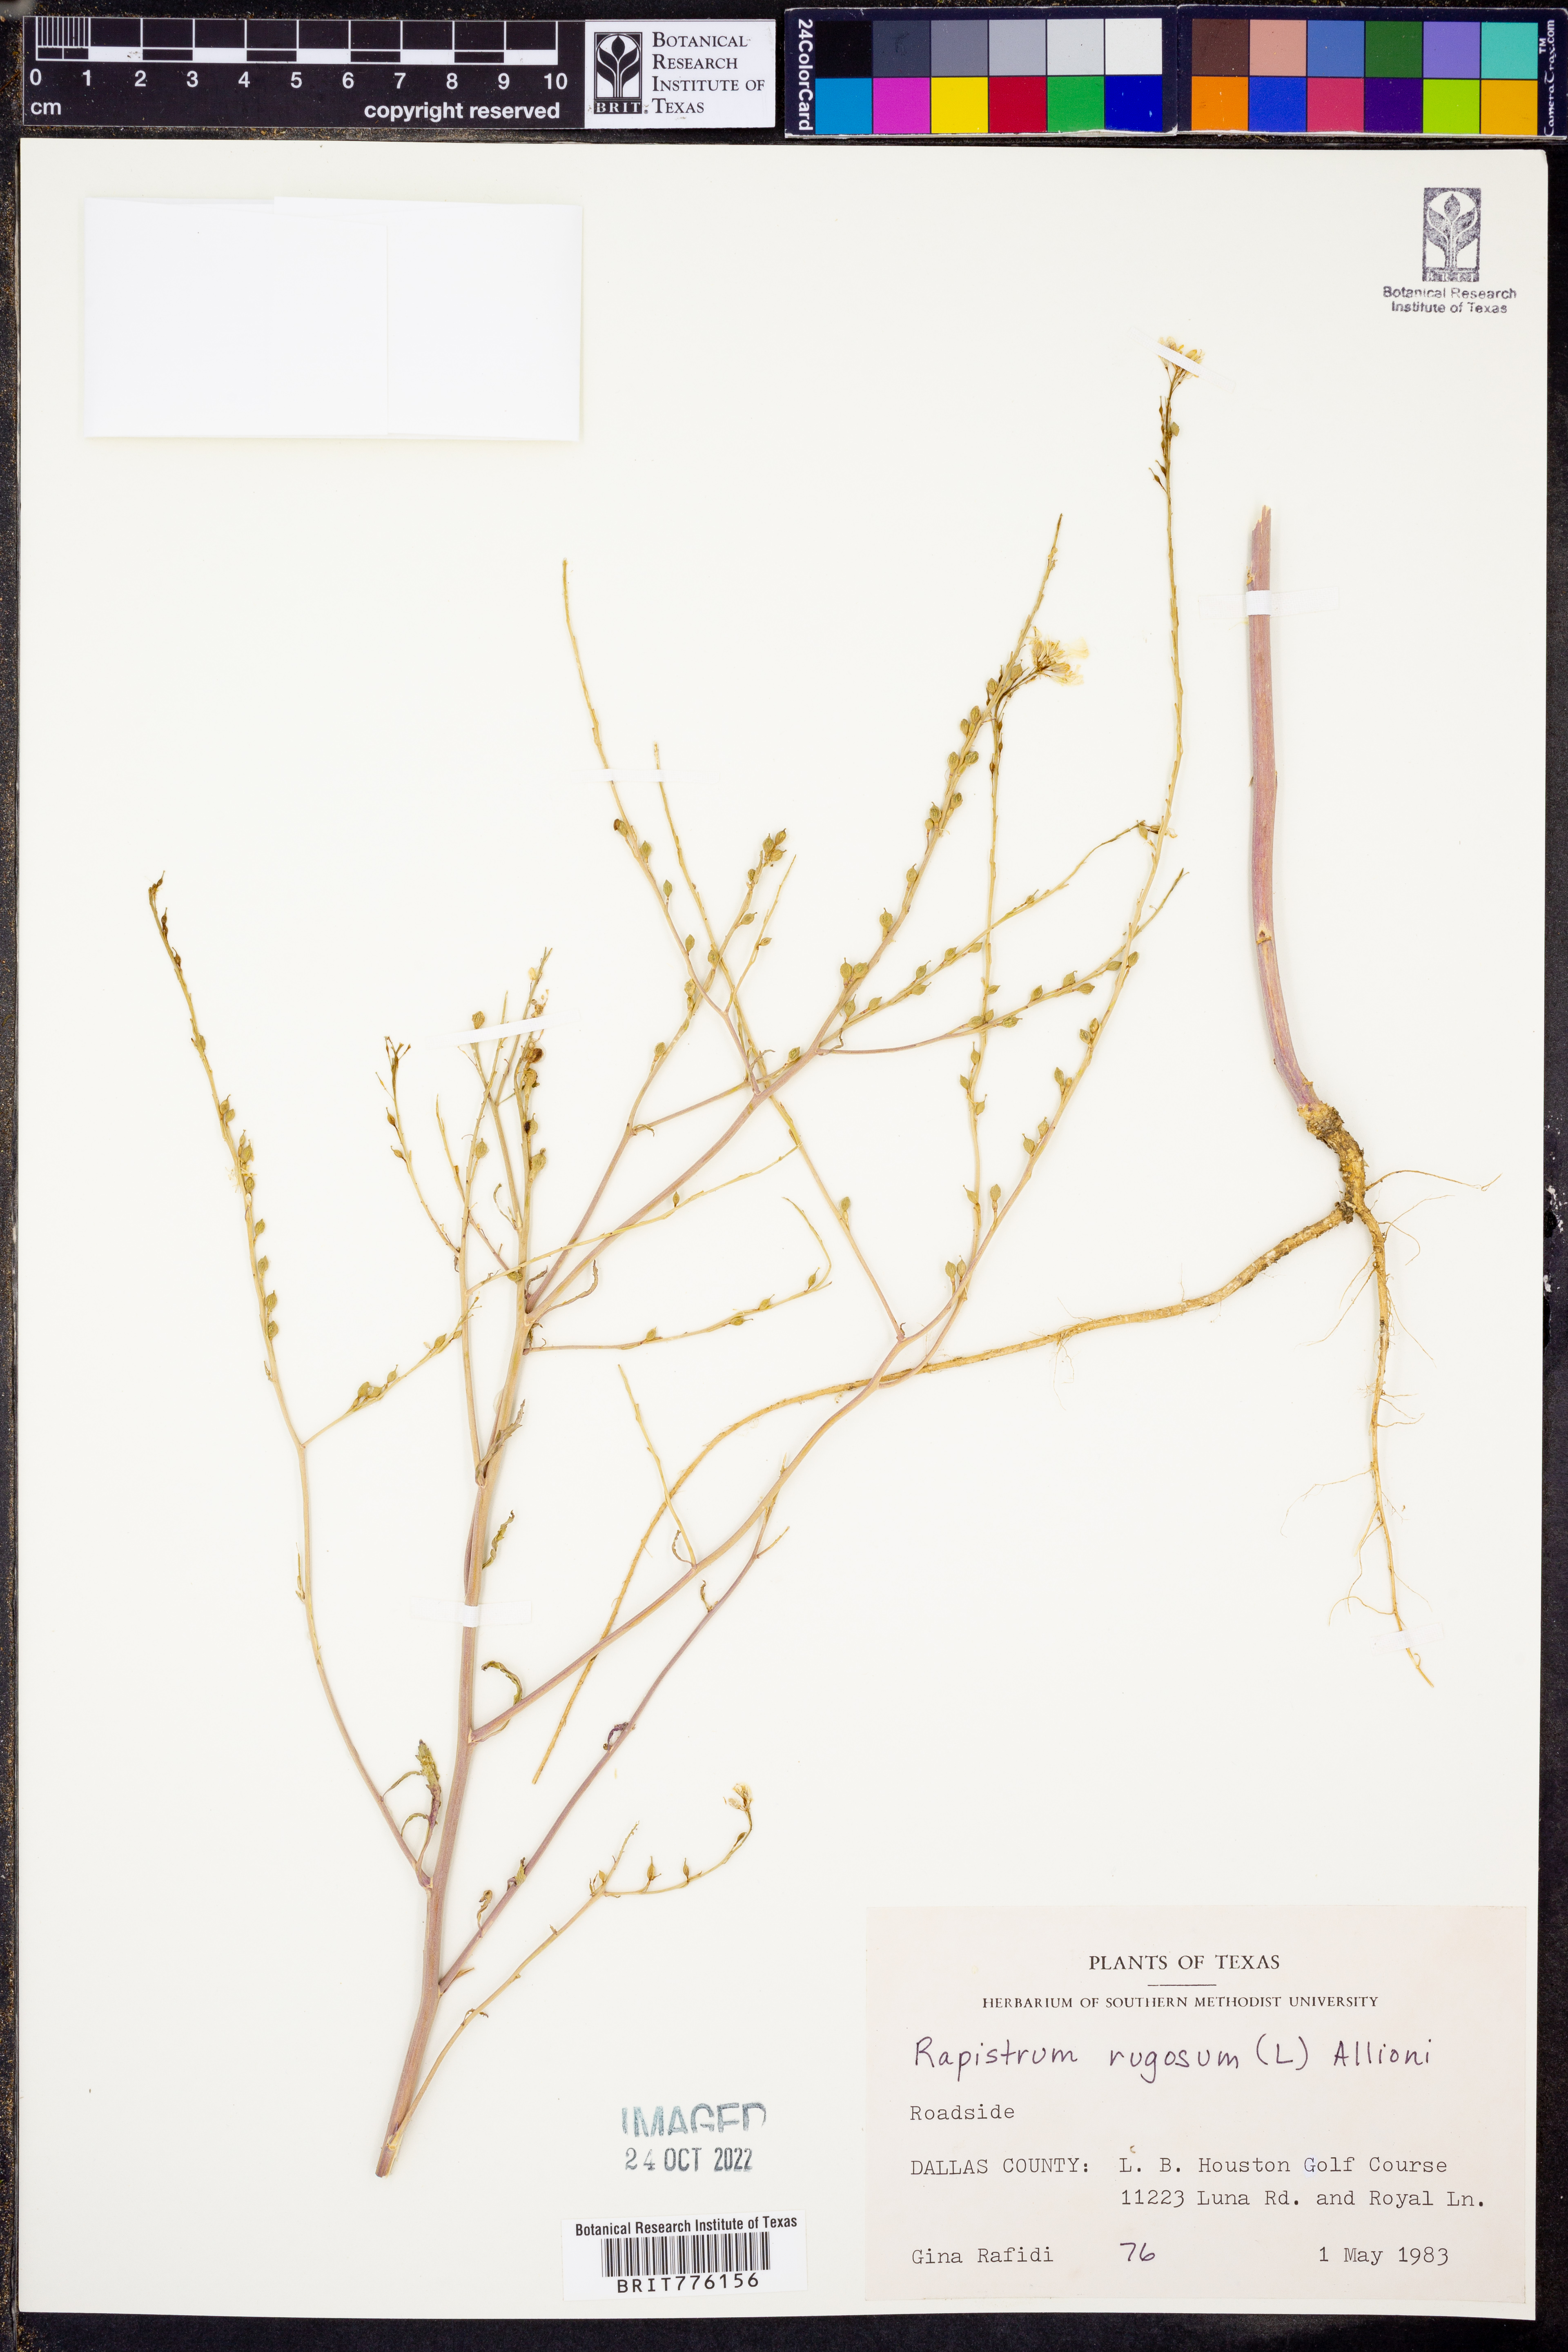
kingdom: Plantae
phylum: Tracheophyta
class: Magnoliopsida
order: Brassicales
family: Brassicaceae
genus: Rapistrum
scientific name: Rapistrum rugosum
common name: Annual bastardcabbage
